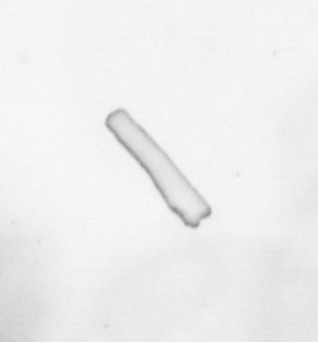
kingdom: Chromista
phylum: Ochrophyta
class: Bacillariophyceae
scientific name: Bacillariophyceae
